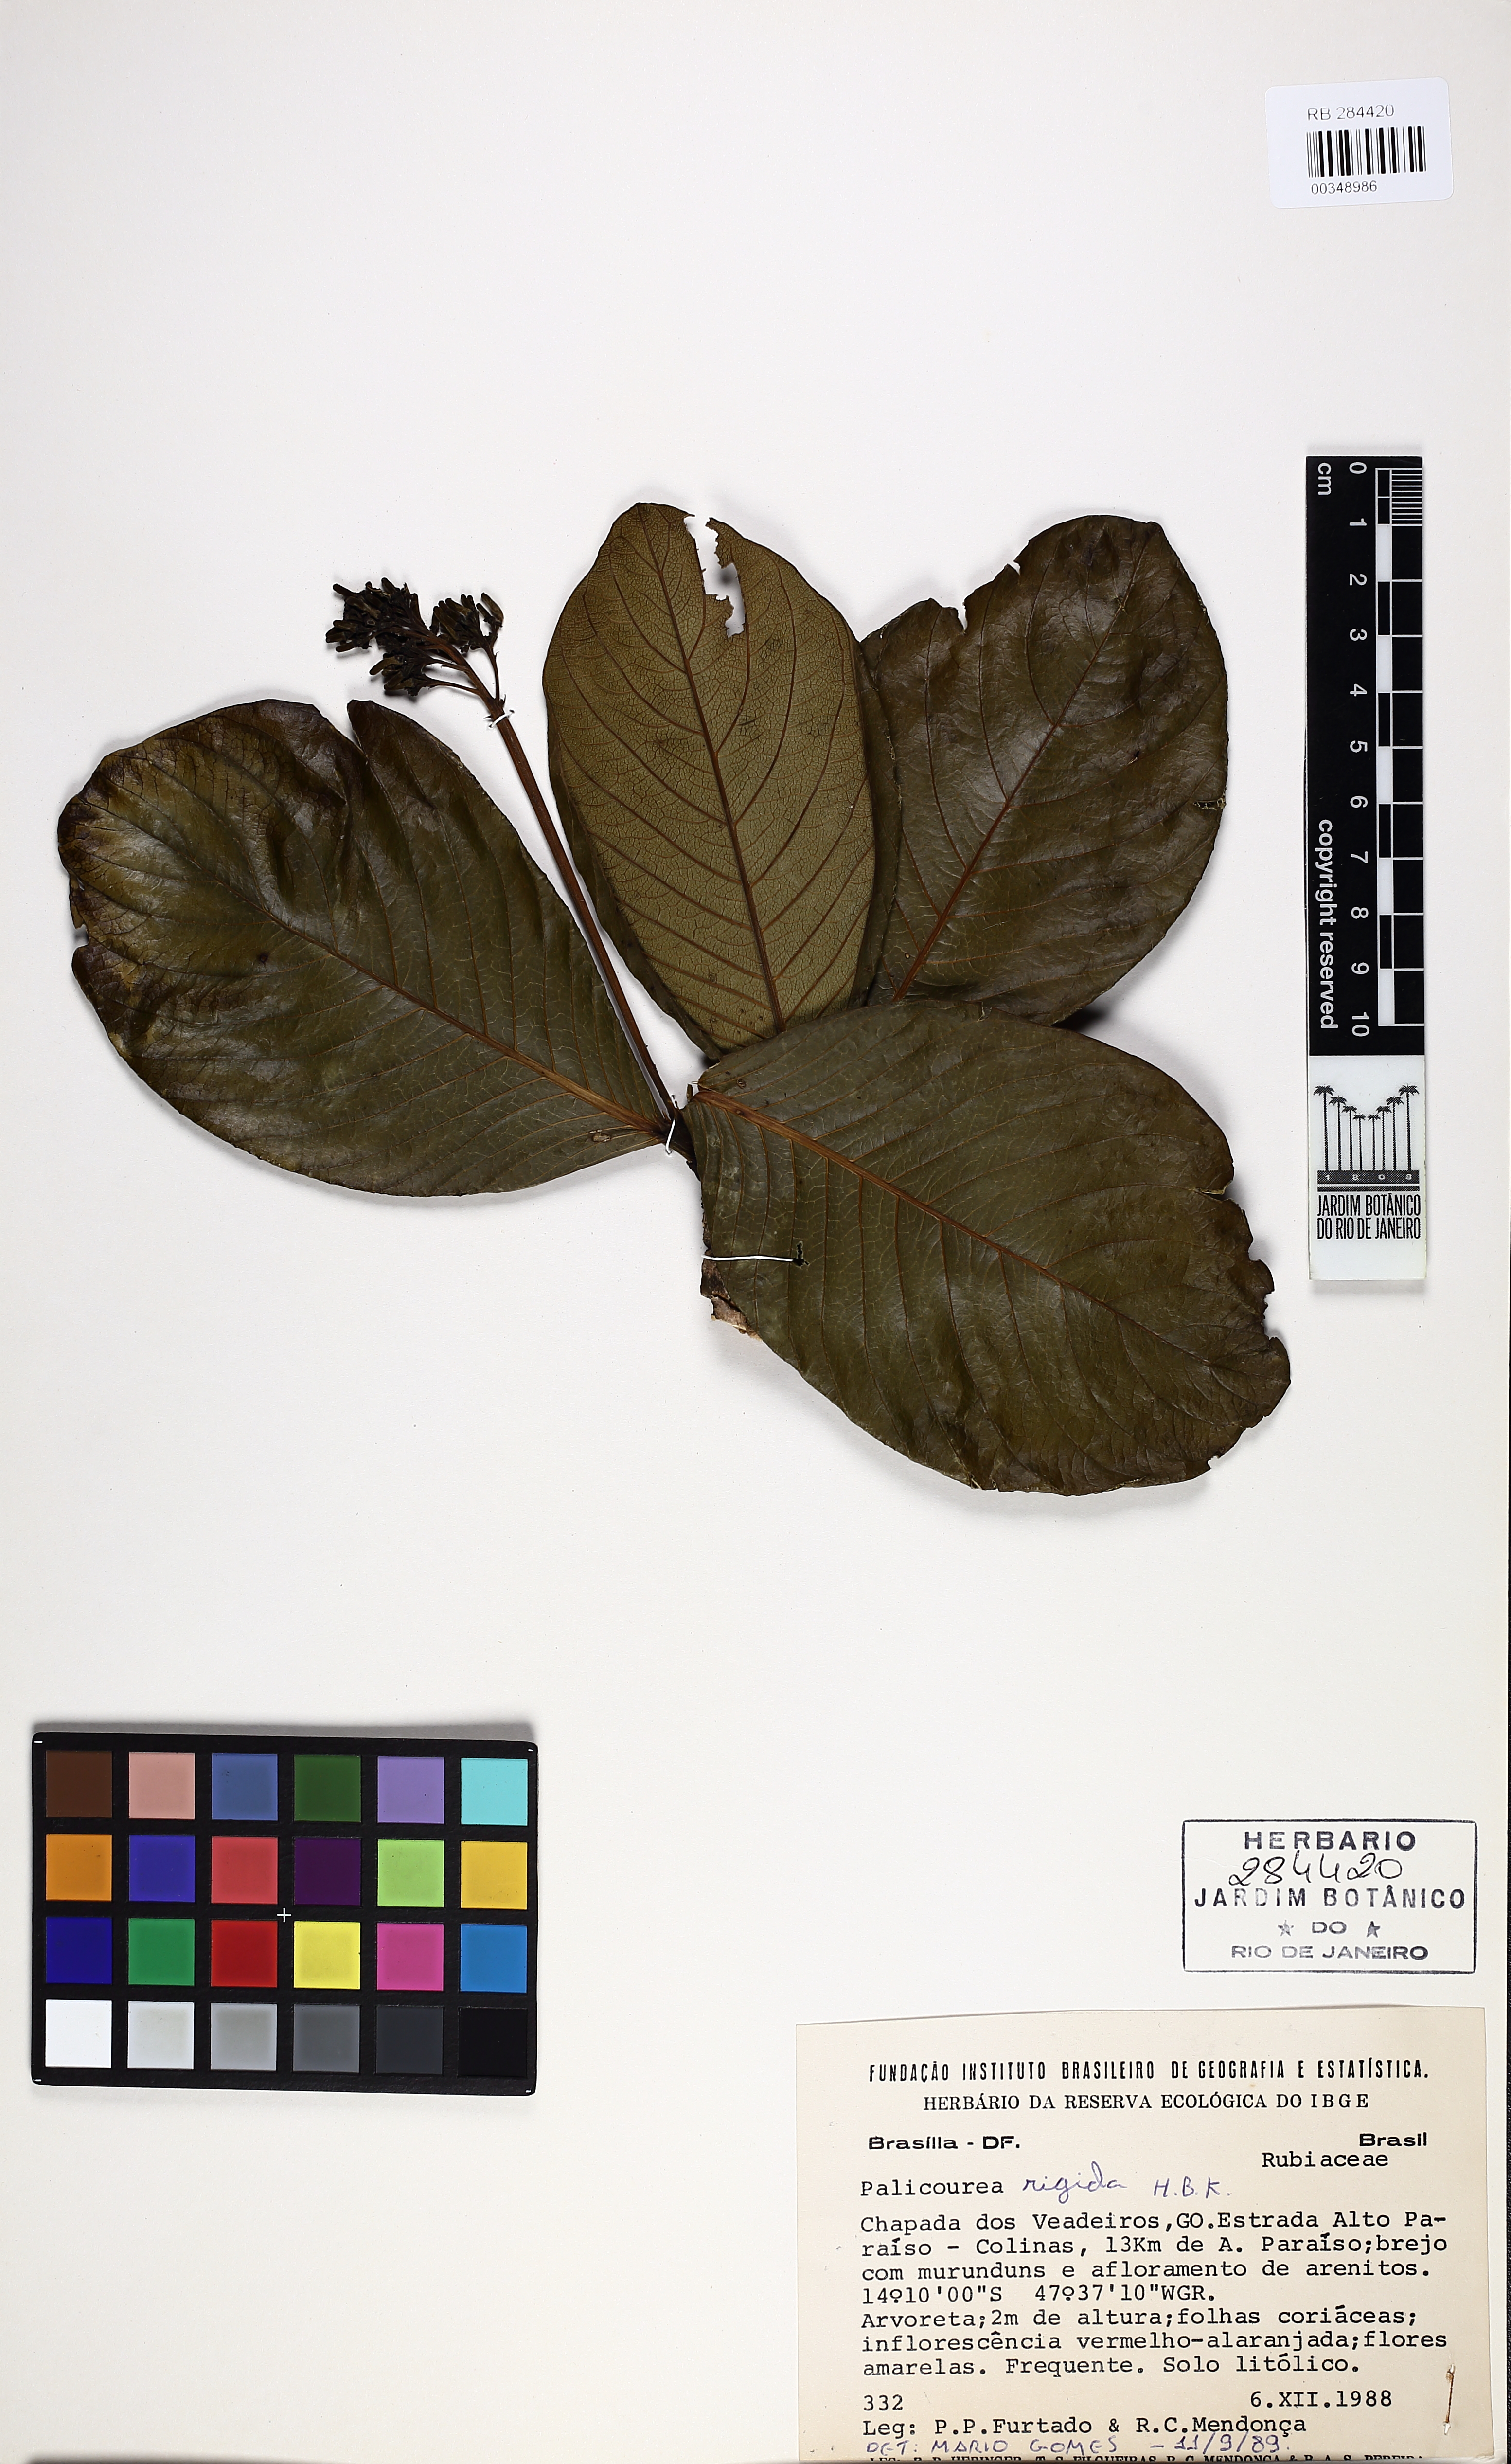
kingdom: Plantae
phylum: Tracheophyta
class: Magnoliopsida
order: Gentianales
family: Rubiaceae
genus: Palicourea
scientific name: Palicourea rigida
